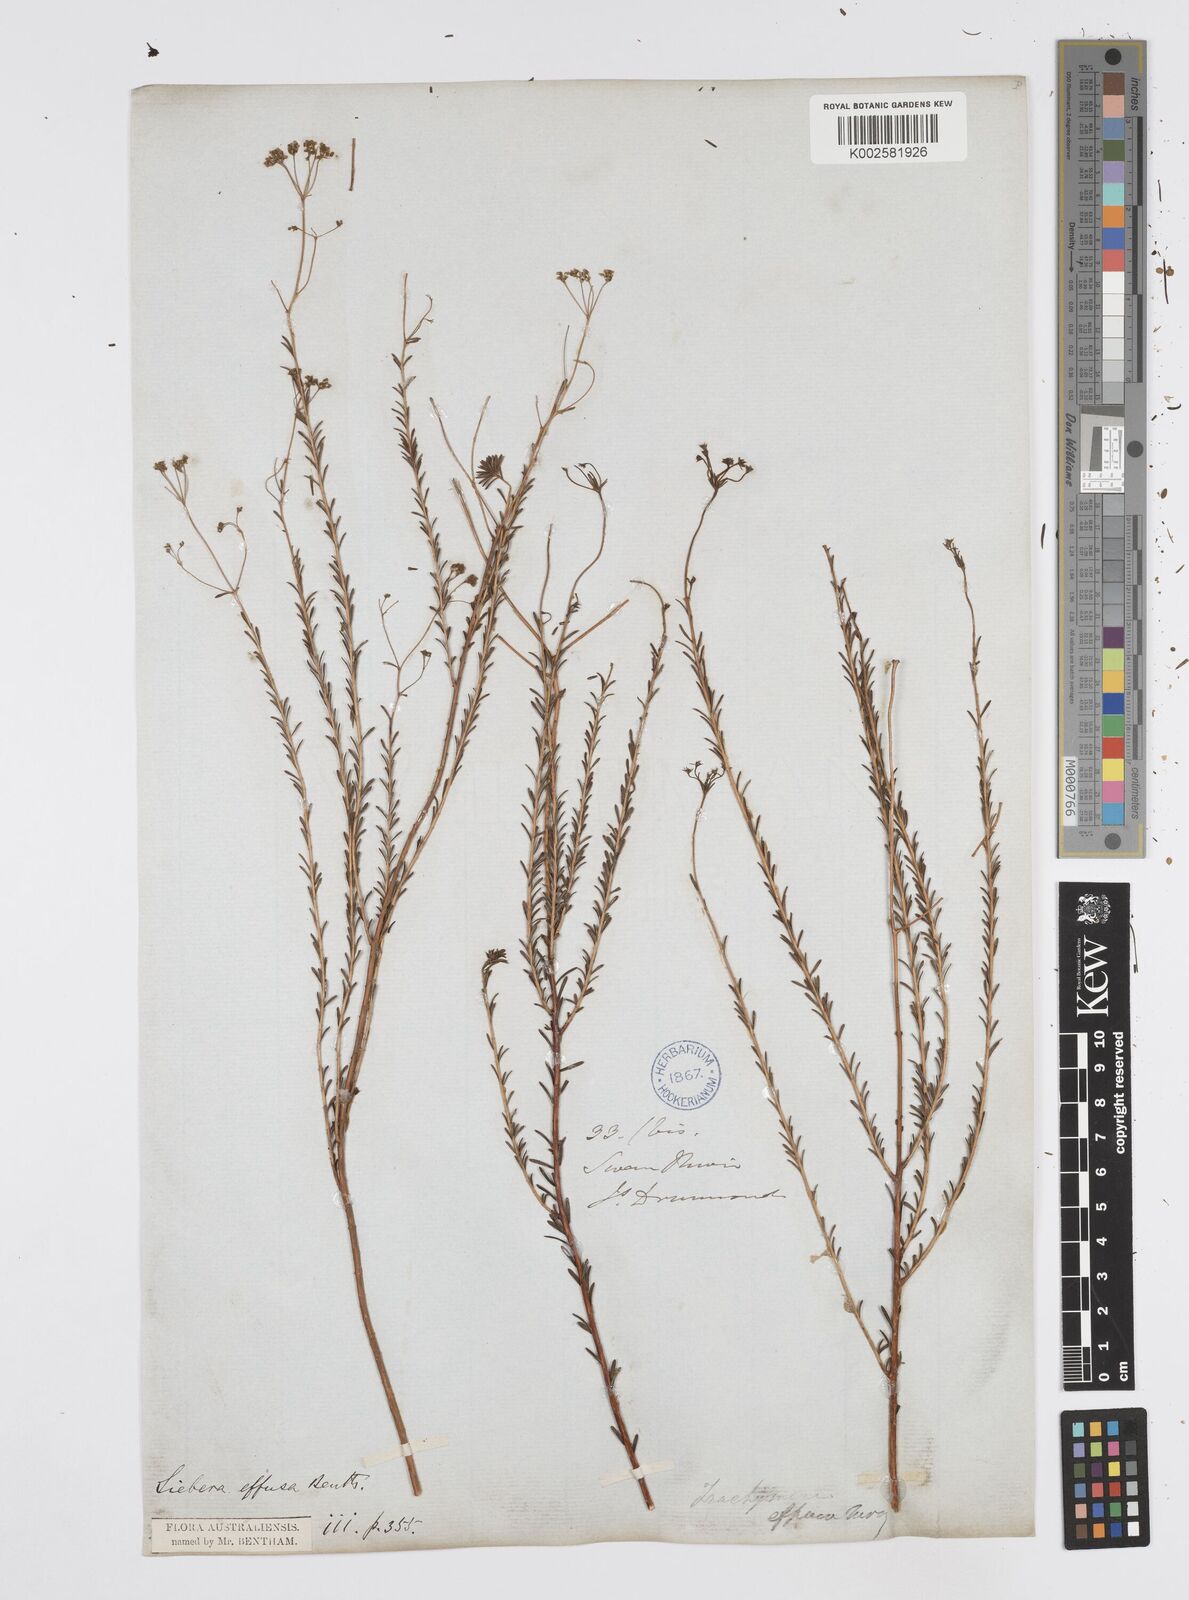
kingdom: Plantae
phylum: Tracheophyta
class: Magnoliopsida
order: Apiales
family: Apiaceae
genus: Platysace
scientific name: Platysace effusa
